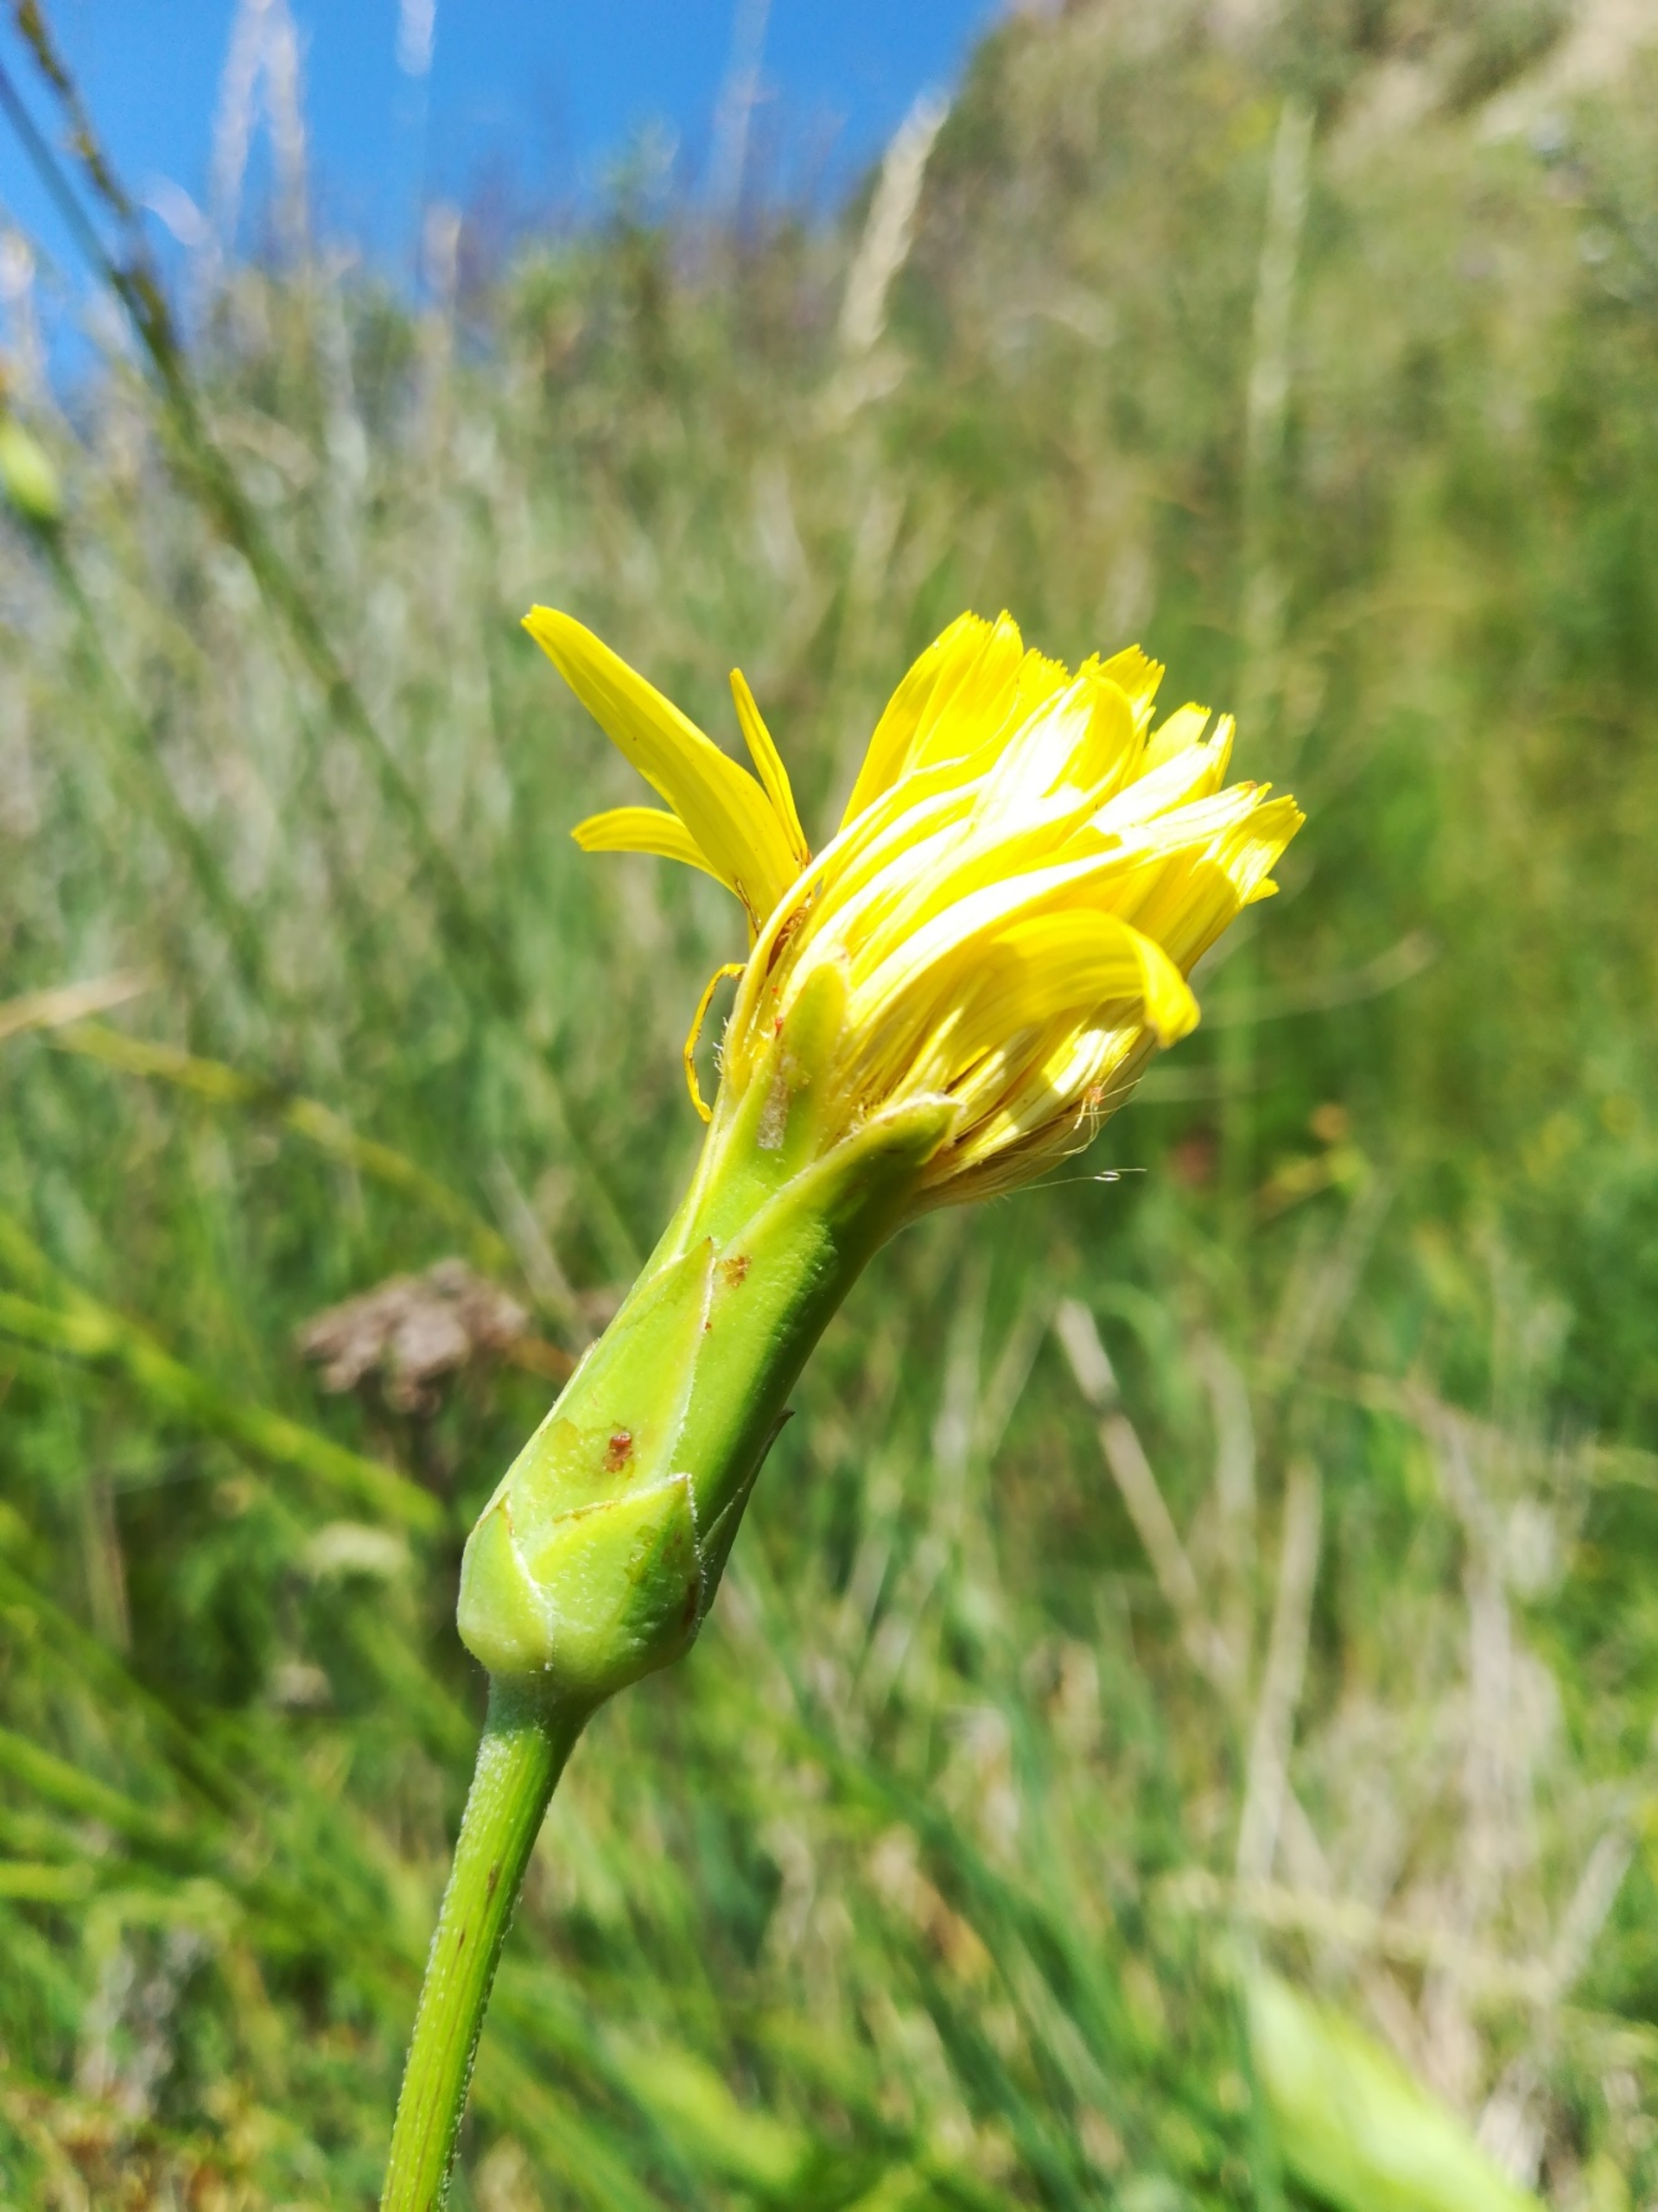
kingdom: Plantae
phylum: Tracheophyta
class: Magnoliopsida
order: Asterales
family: Asteraceae
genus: Pseudopodospermum
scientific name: Pseudopodospermum hispanicum
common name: Have-skorsoner
